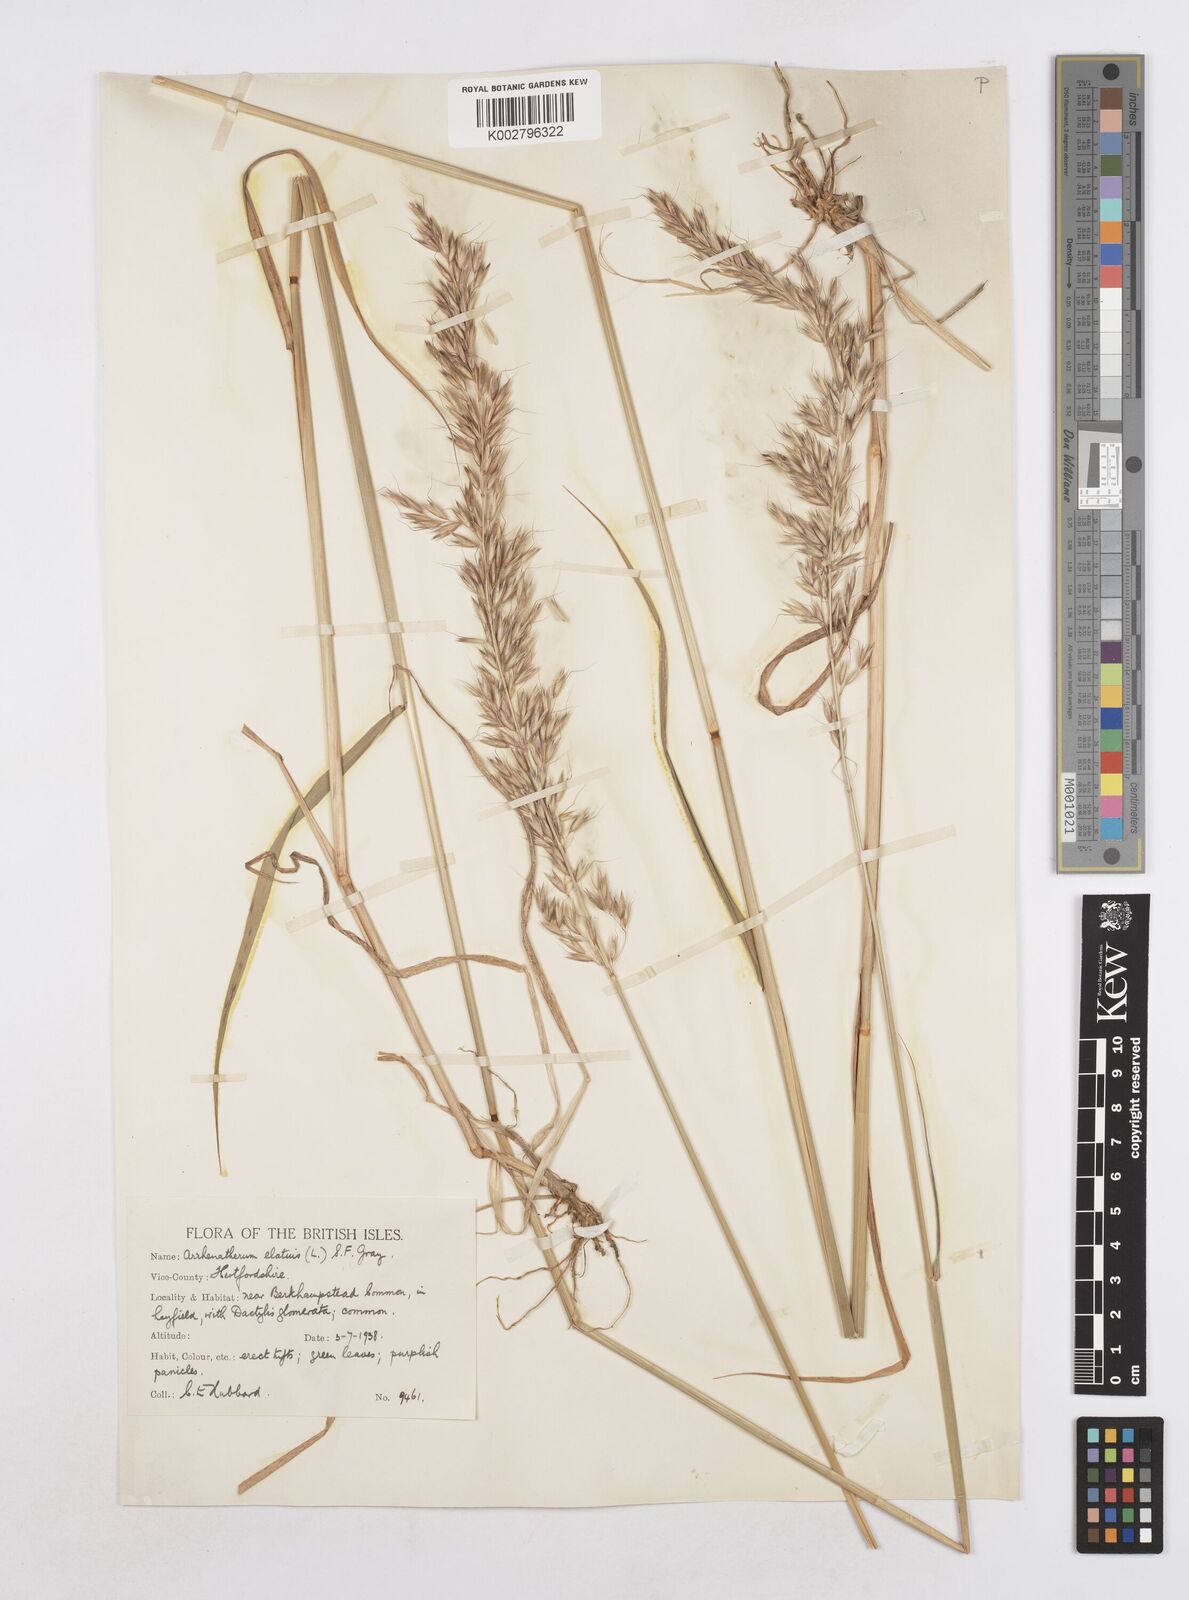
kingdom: Plantae
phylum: Tracheophyta
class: Liliopsida
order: Poales
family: Poaceae
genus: Arrhenatherum
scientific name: Arrhenatherum elatius
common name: Tall oatgrass
